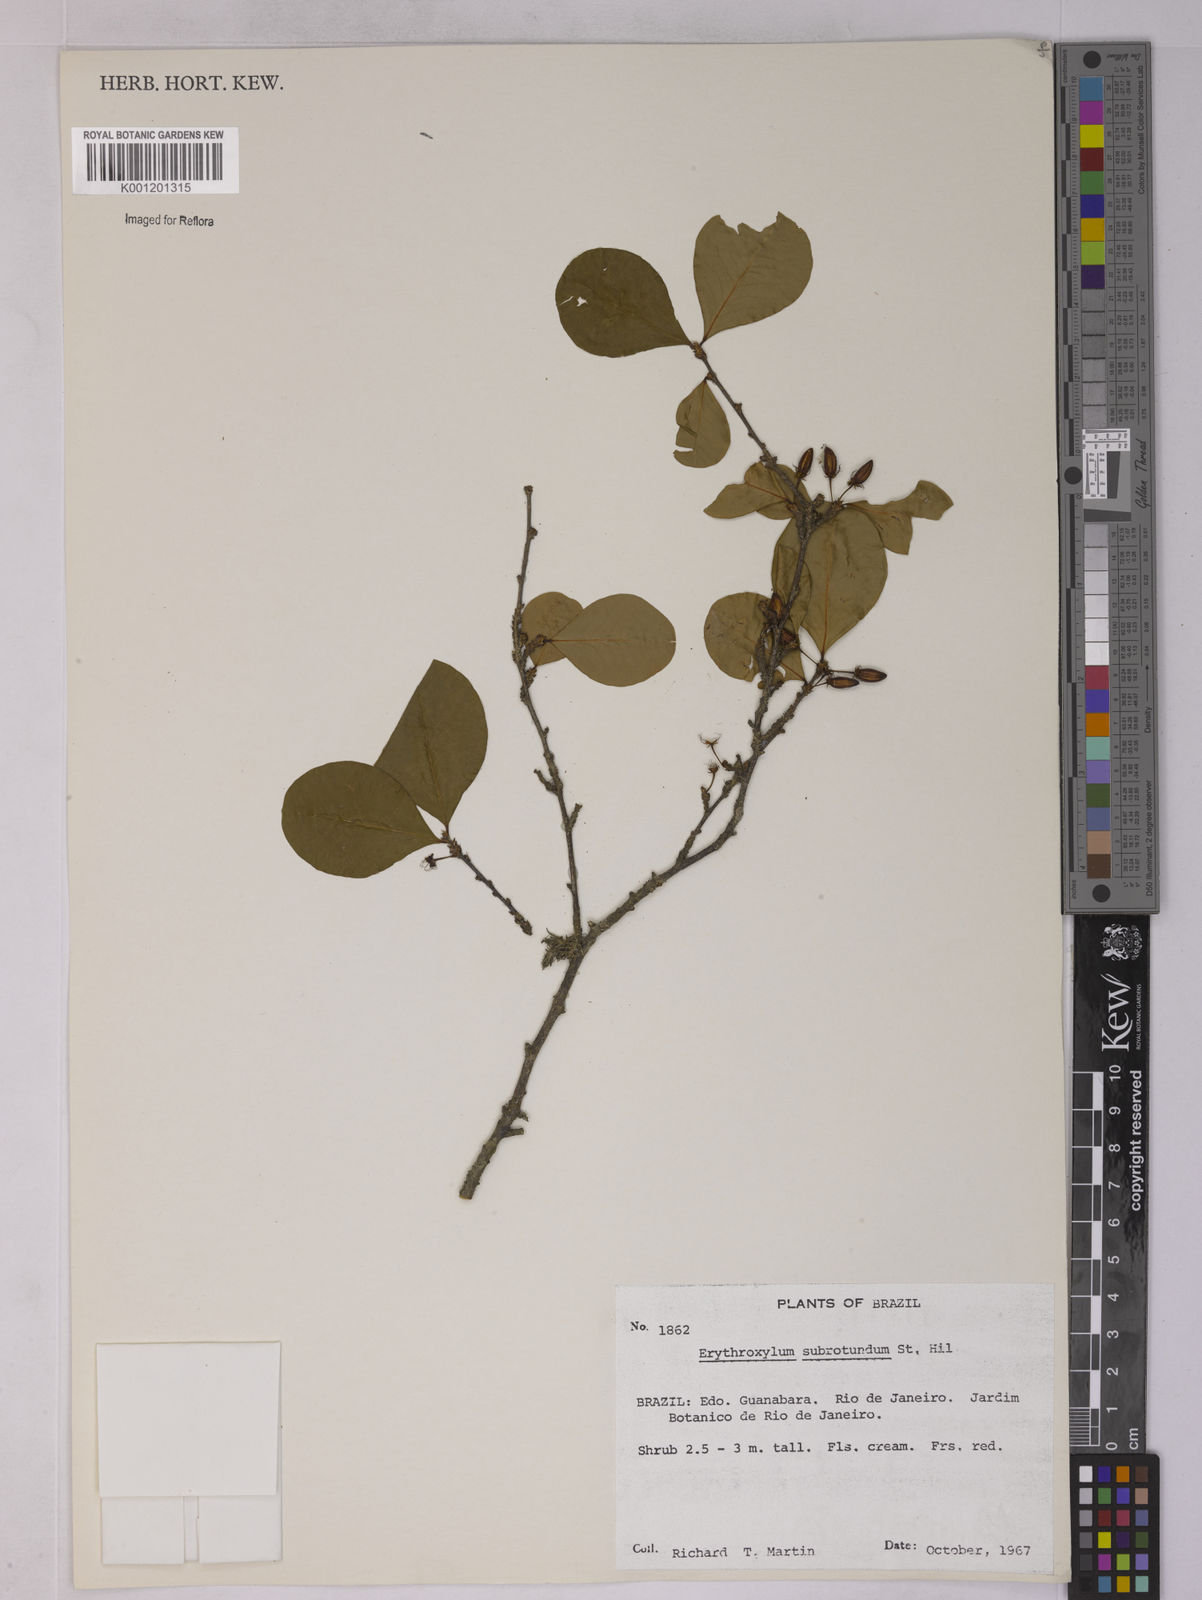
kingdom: Plantae
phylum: Tracheophyta
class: Magnoliopsida
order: Malpighiales
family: Erythroxylaceae
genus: Erythroxylum
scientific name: Erythroxylum subrotundum
